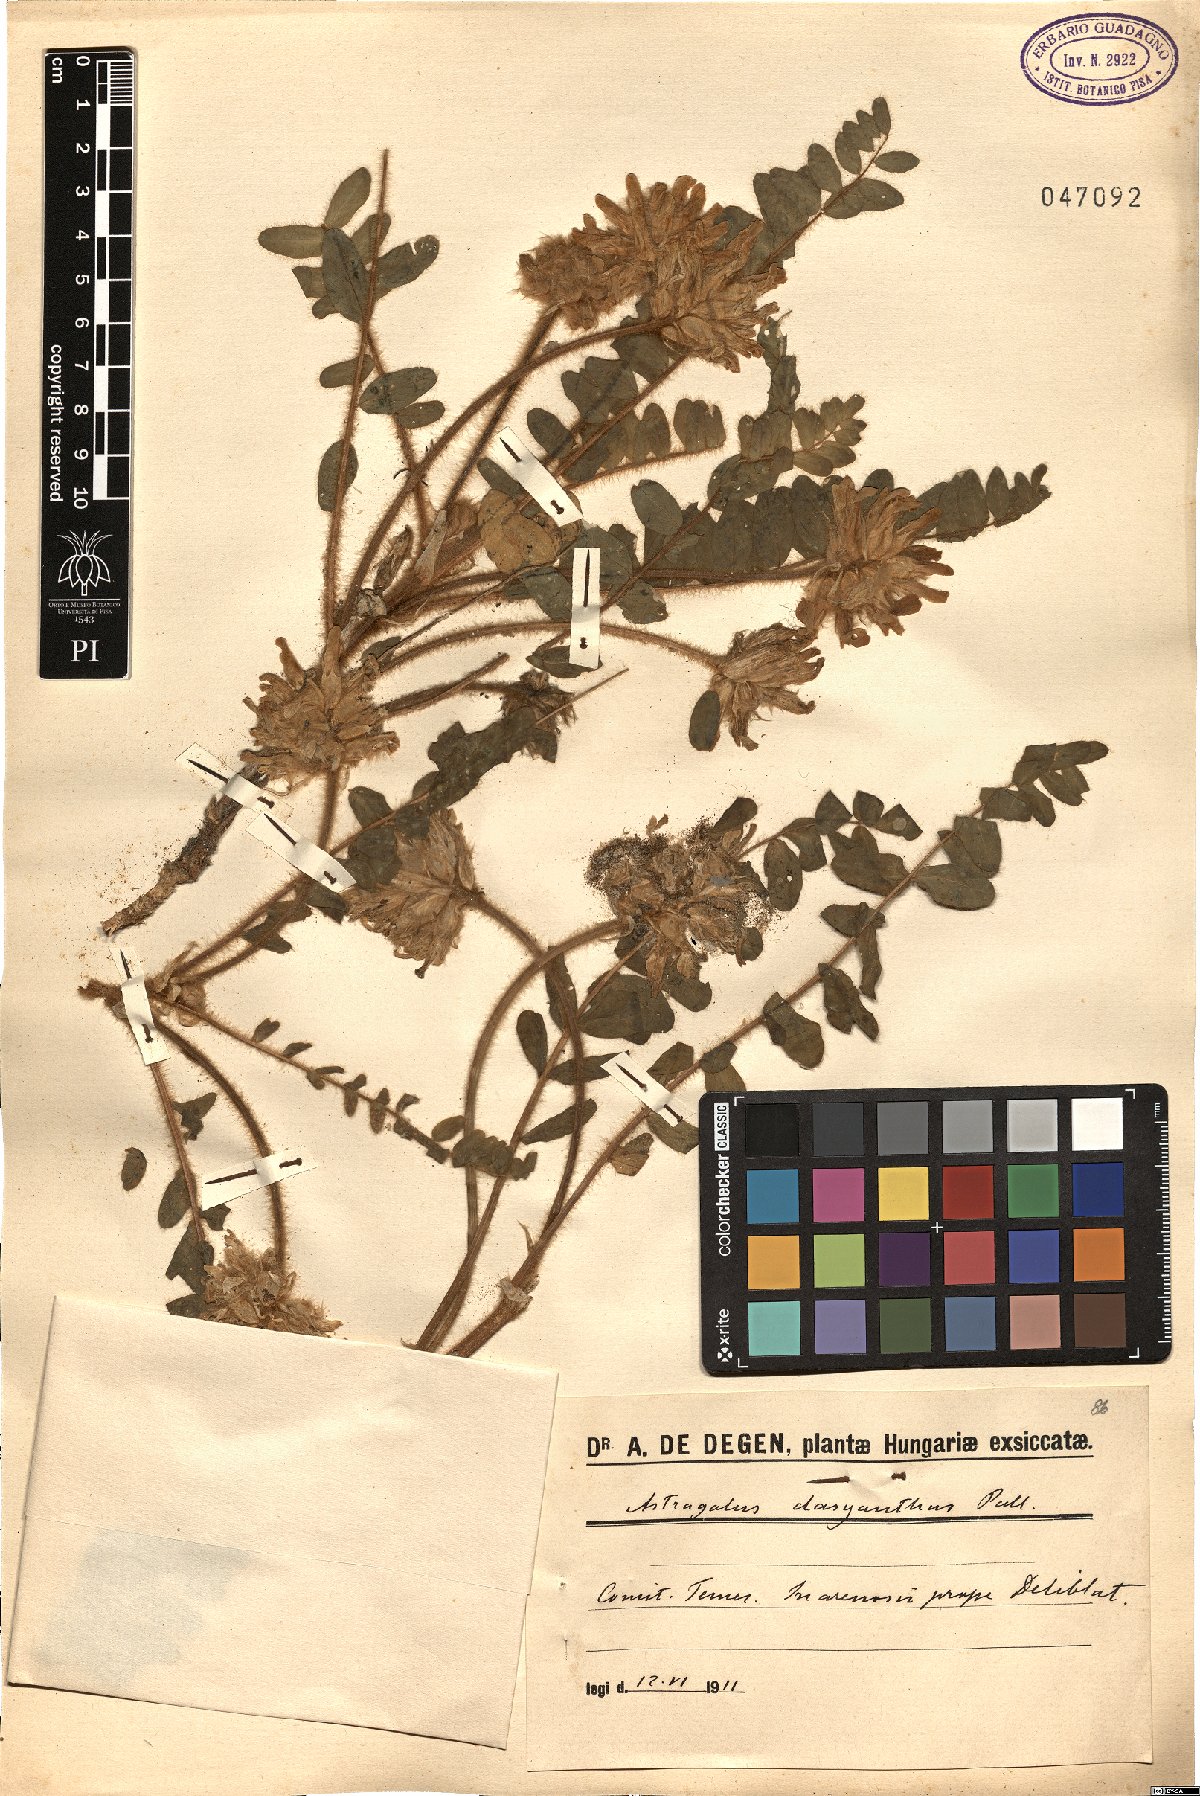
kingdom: Plantae
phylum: Tracheophyta
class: Magnoliopsida
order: Fabales
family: Fabaceae
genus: Astragalus
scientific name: Astragalus dasyanthus
